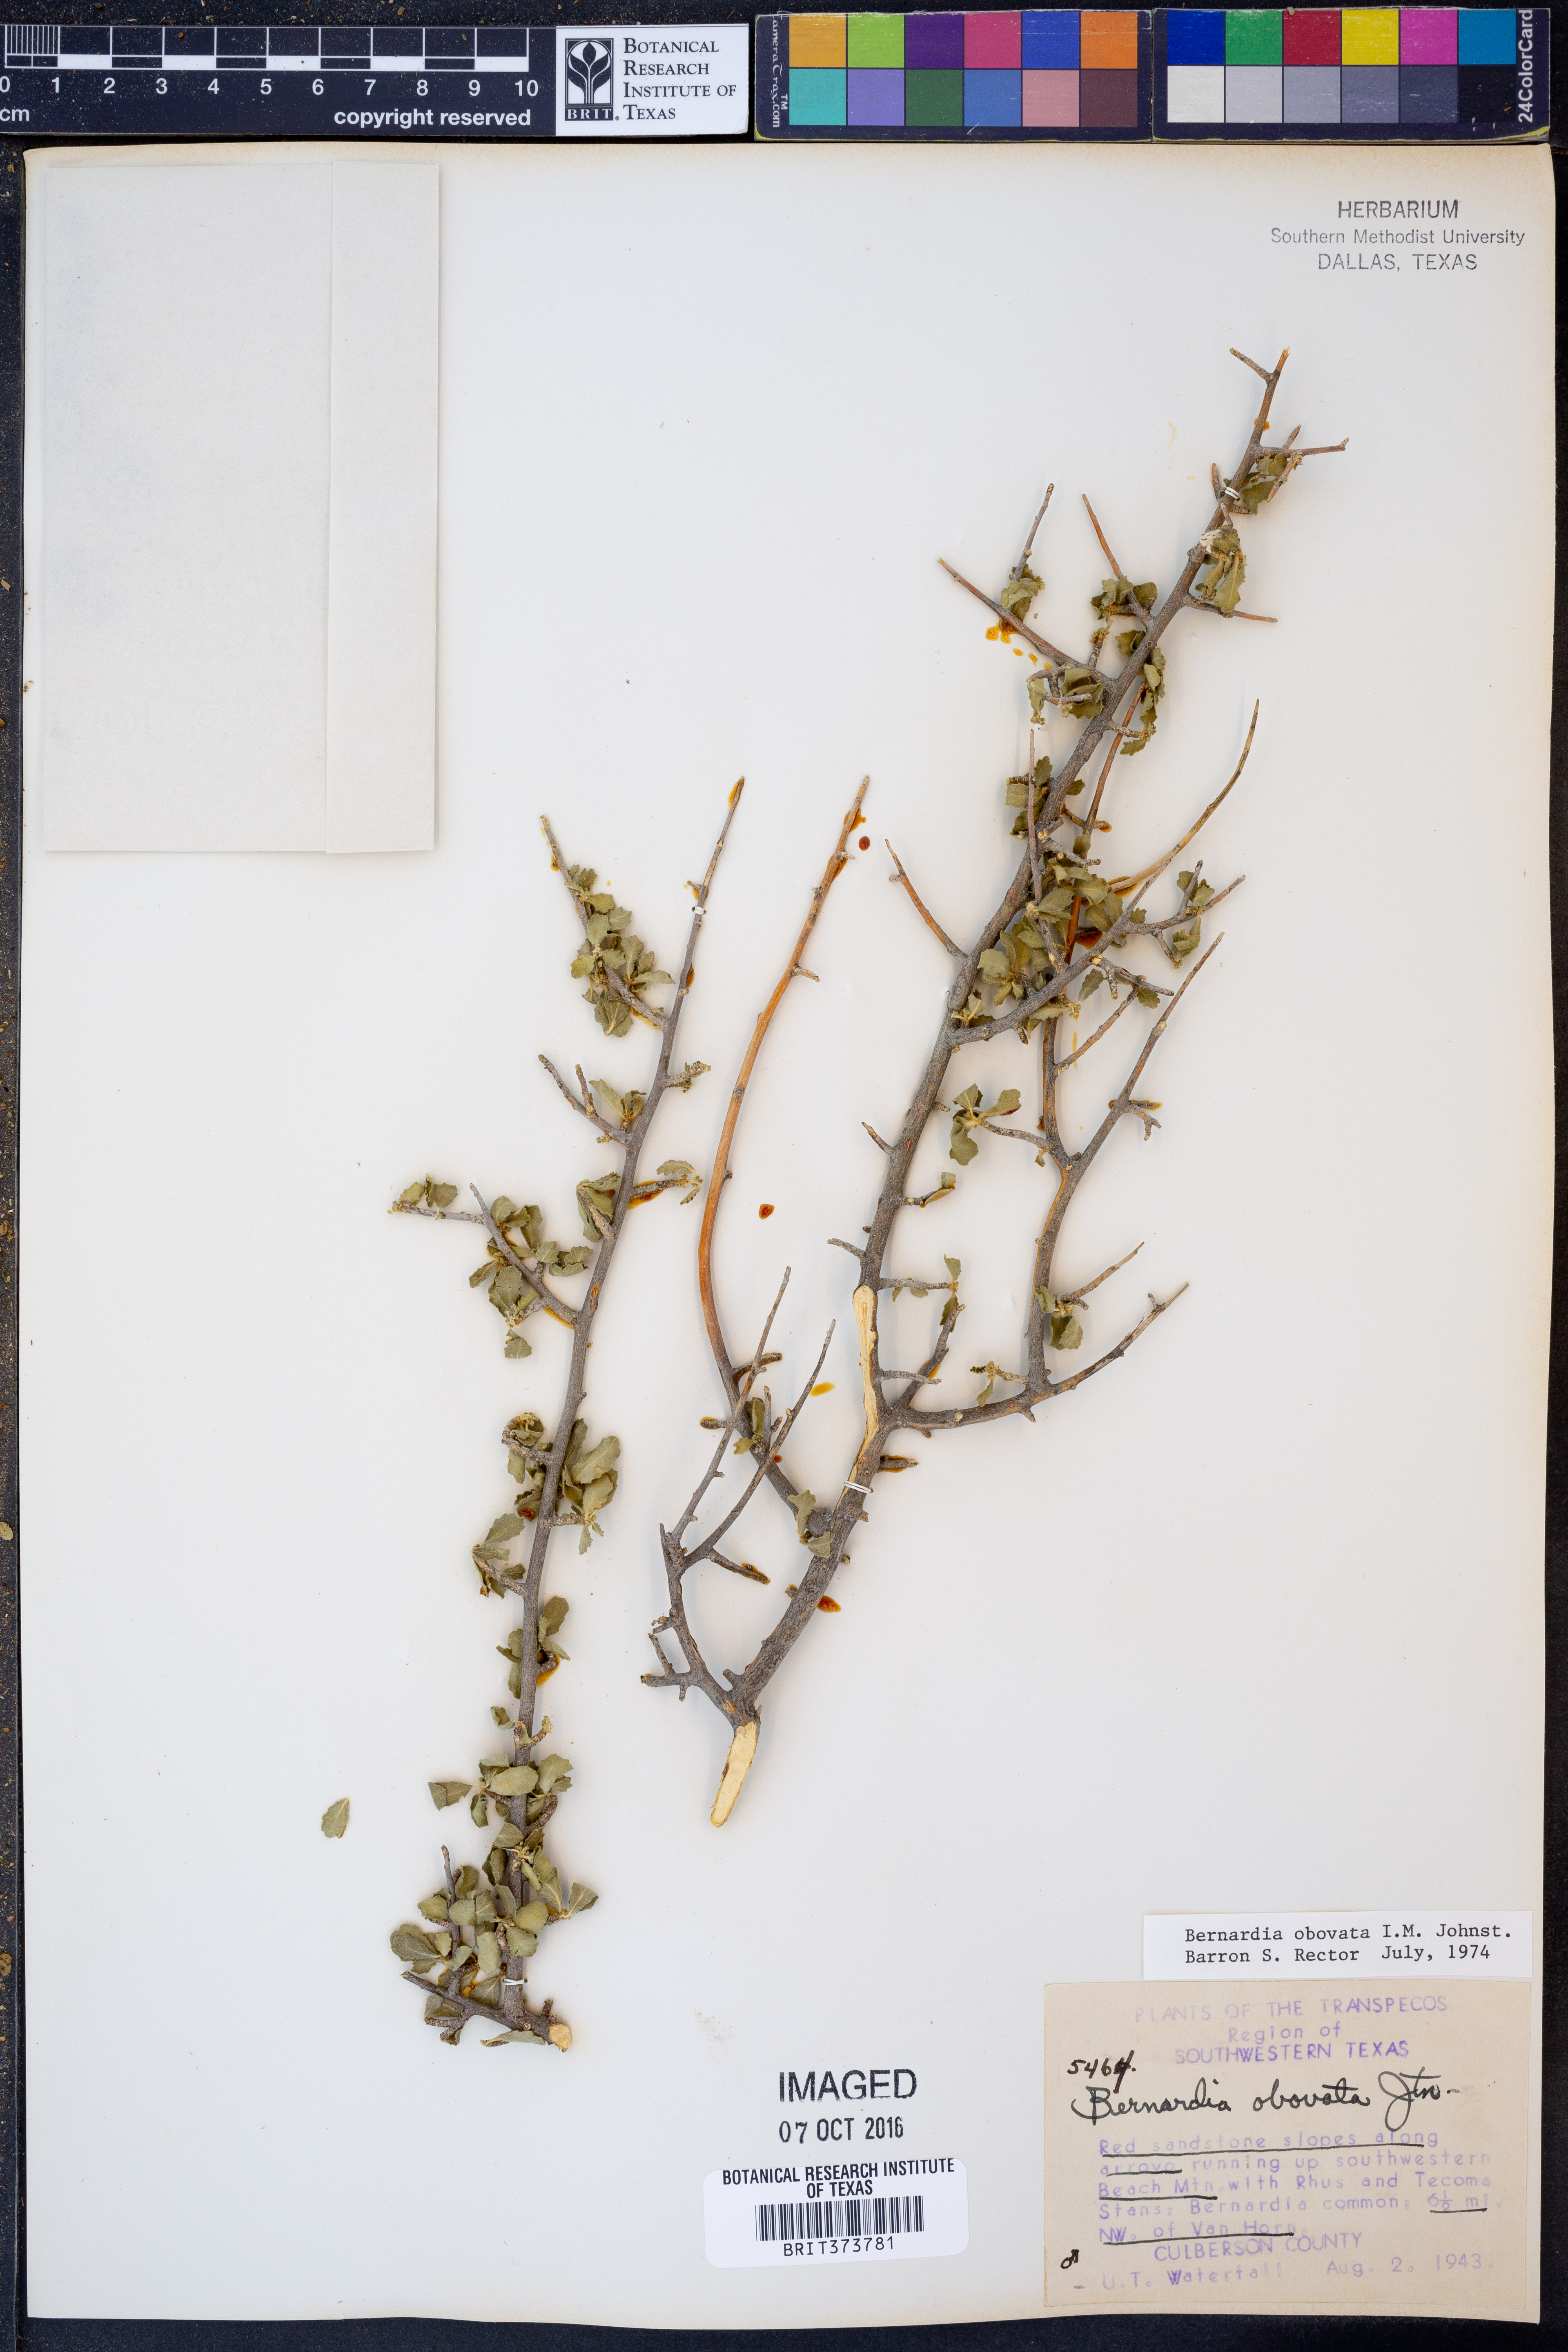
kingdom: Plantae
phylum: Tracheophyta
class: Magnoliopsida
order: Malpighiales
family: Euphorbiaceae
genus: Bernardia
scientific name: Bernardia obovata
